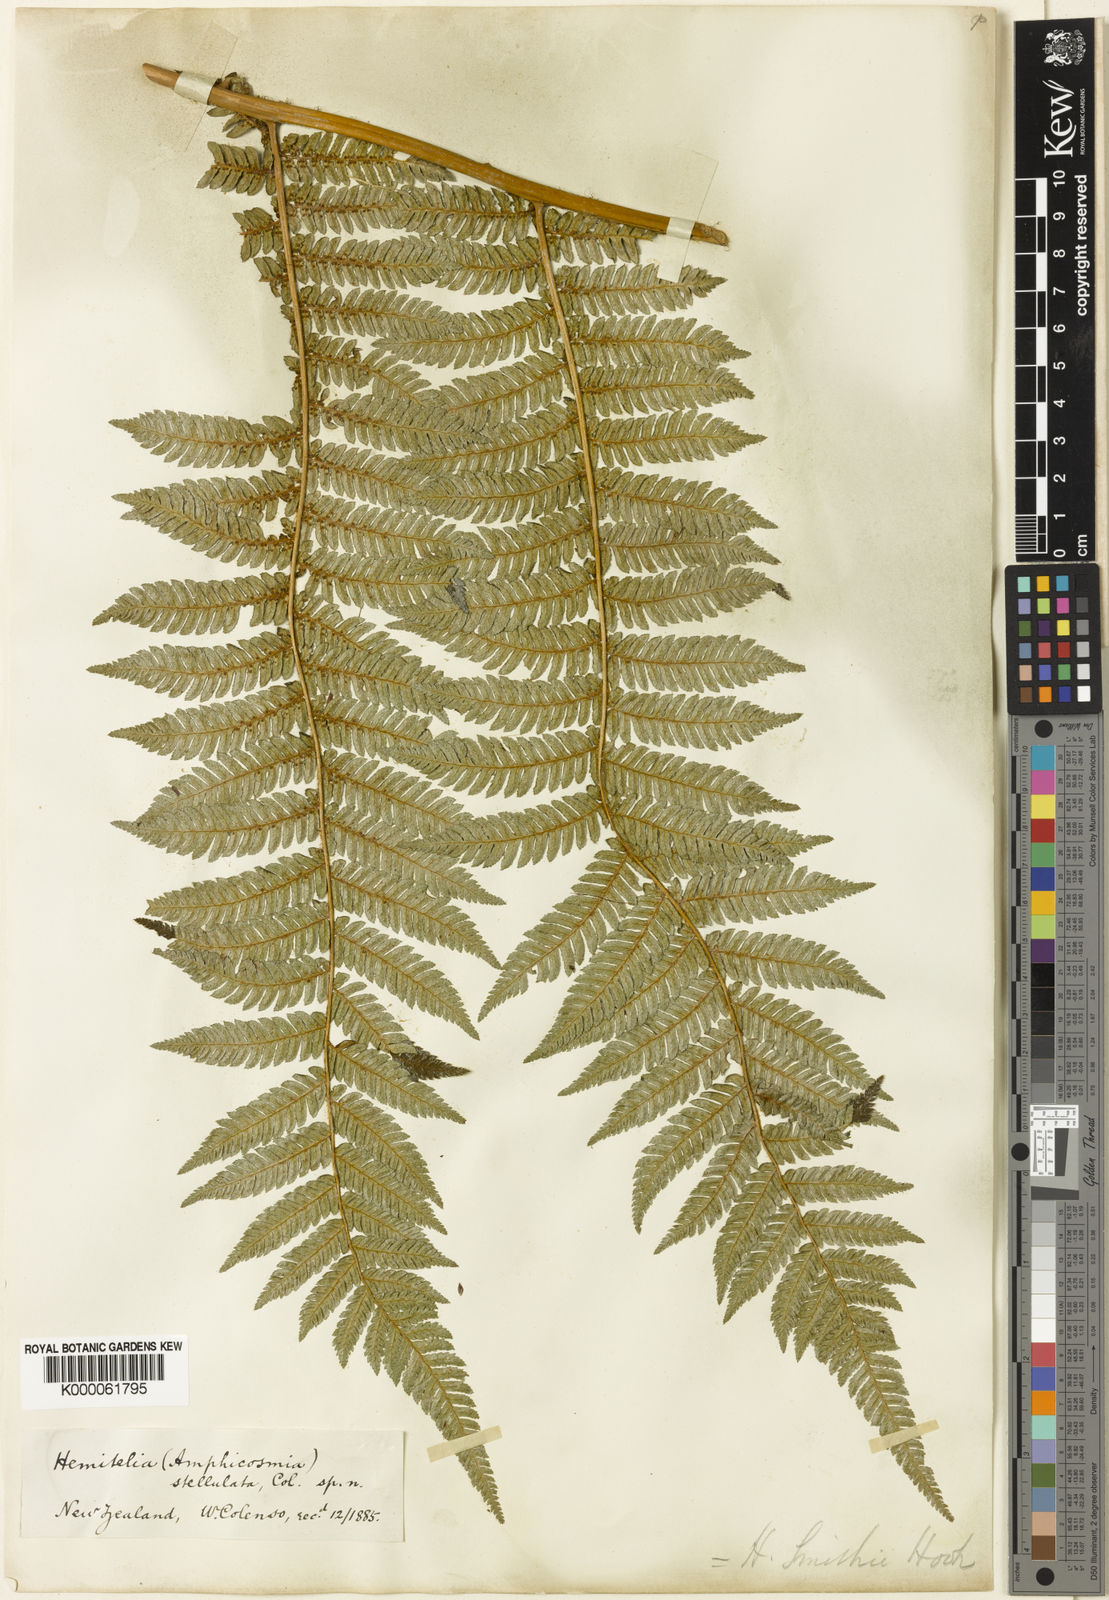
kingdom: Plantae
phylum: Tracheophyta
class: Polypodiopsida
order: Cyatheales
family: Cyatheaceae
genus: Alsophila
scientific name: Alsophila smithii
